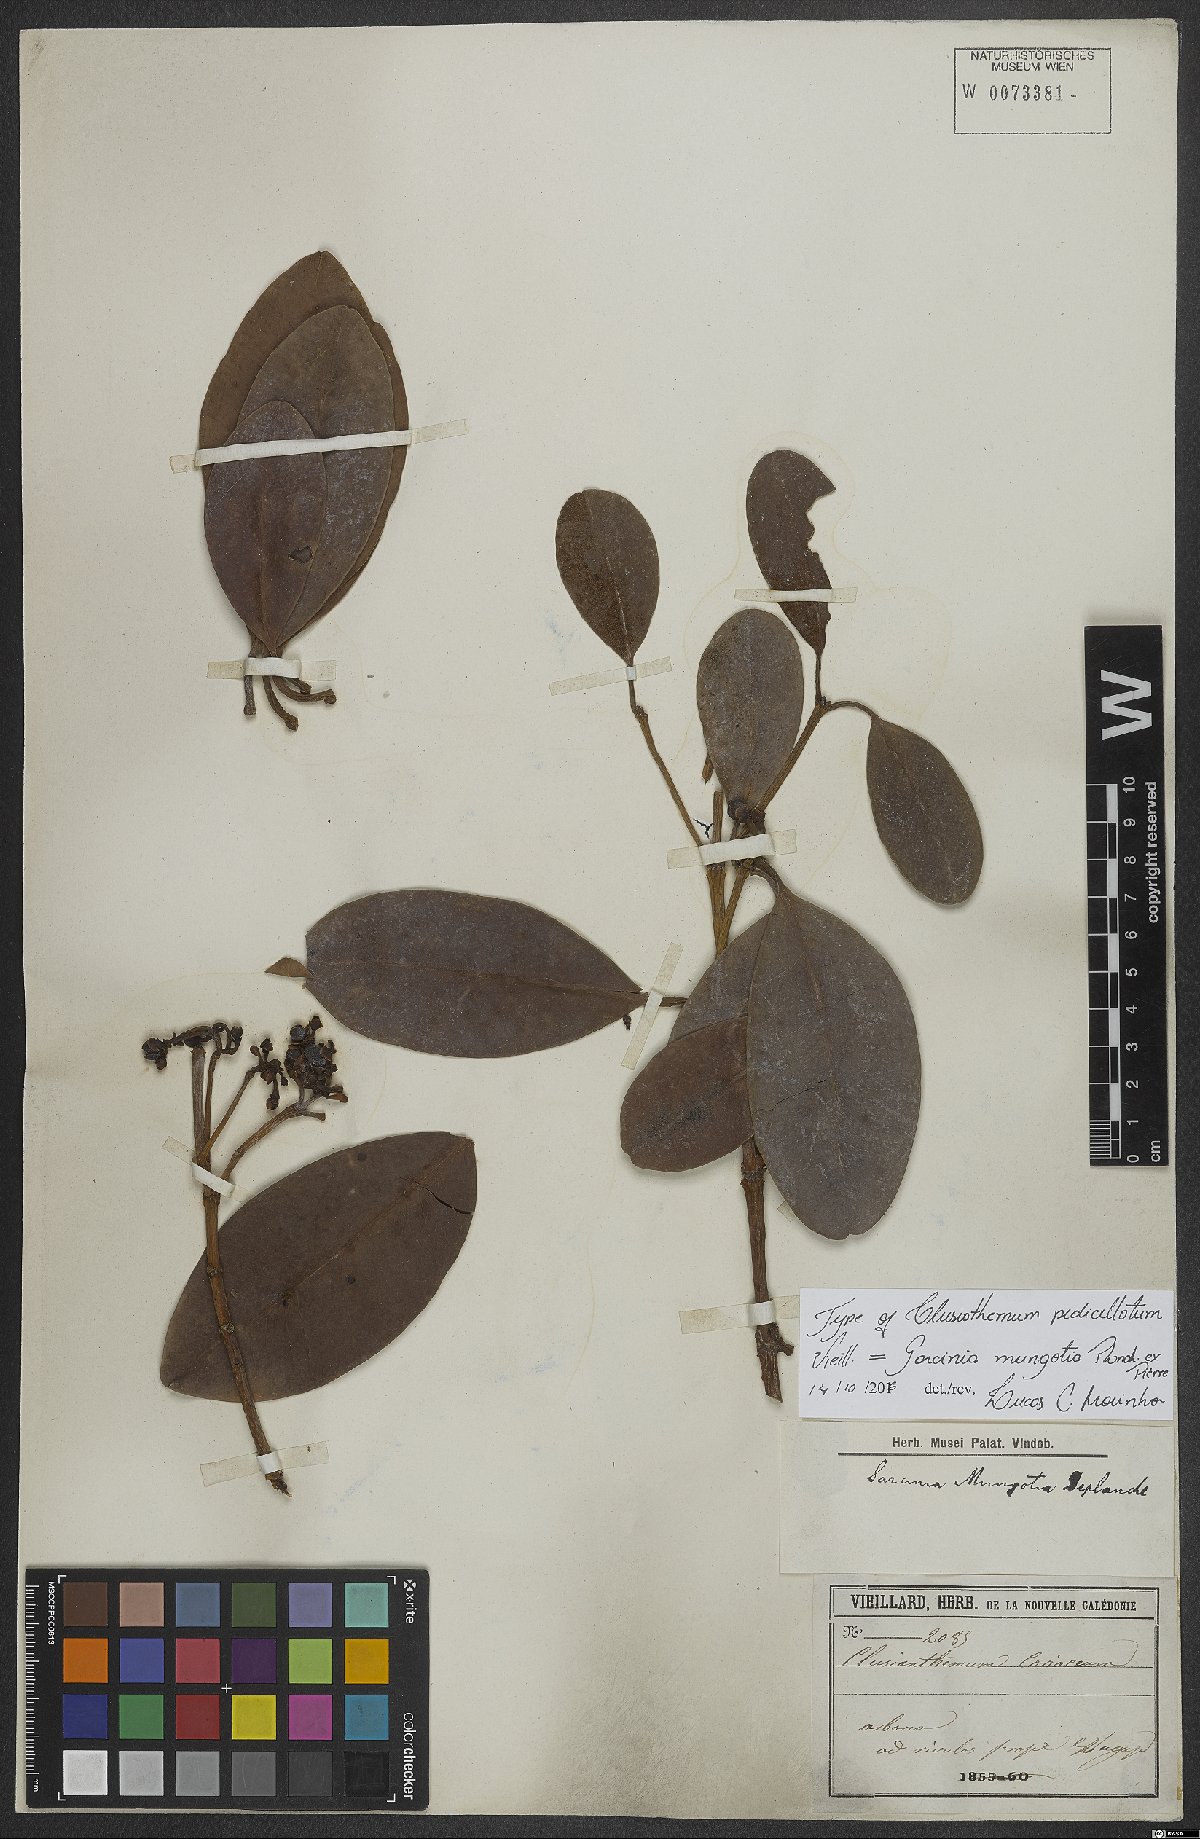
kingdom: Plantae
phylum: Tracheophyta
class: Magnoliopsida
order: Malpighiales
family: Clusiaceae
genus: Garcinia
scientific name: Garcinia pseudoguttifera
